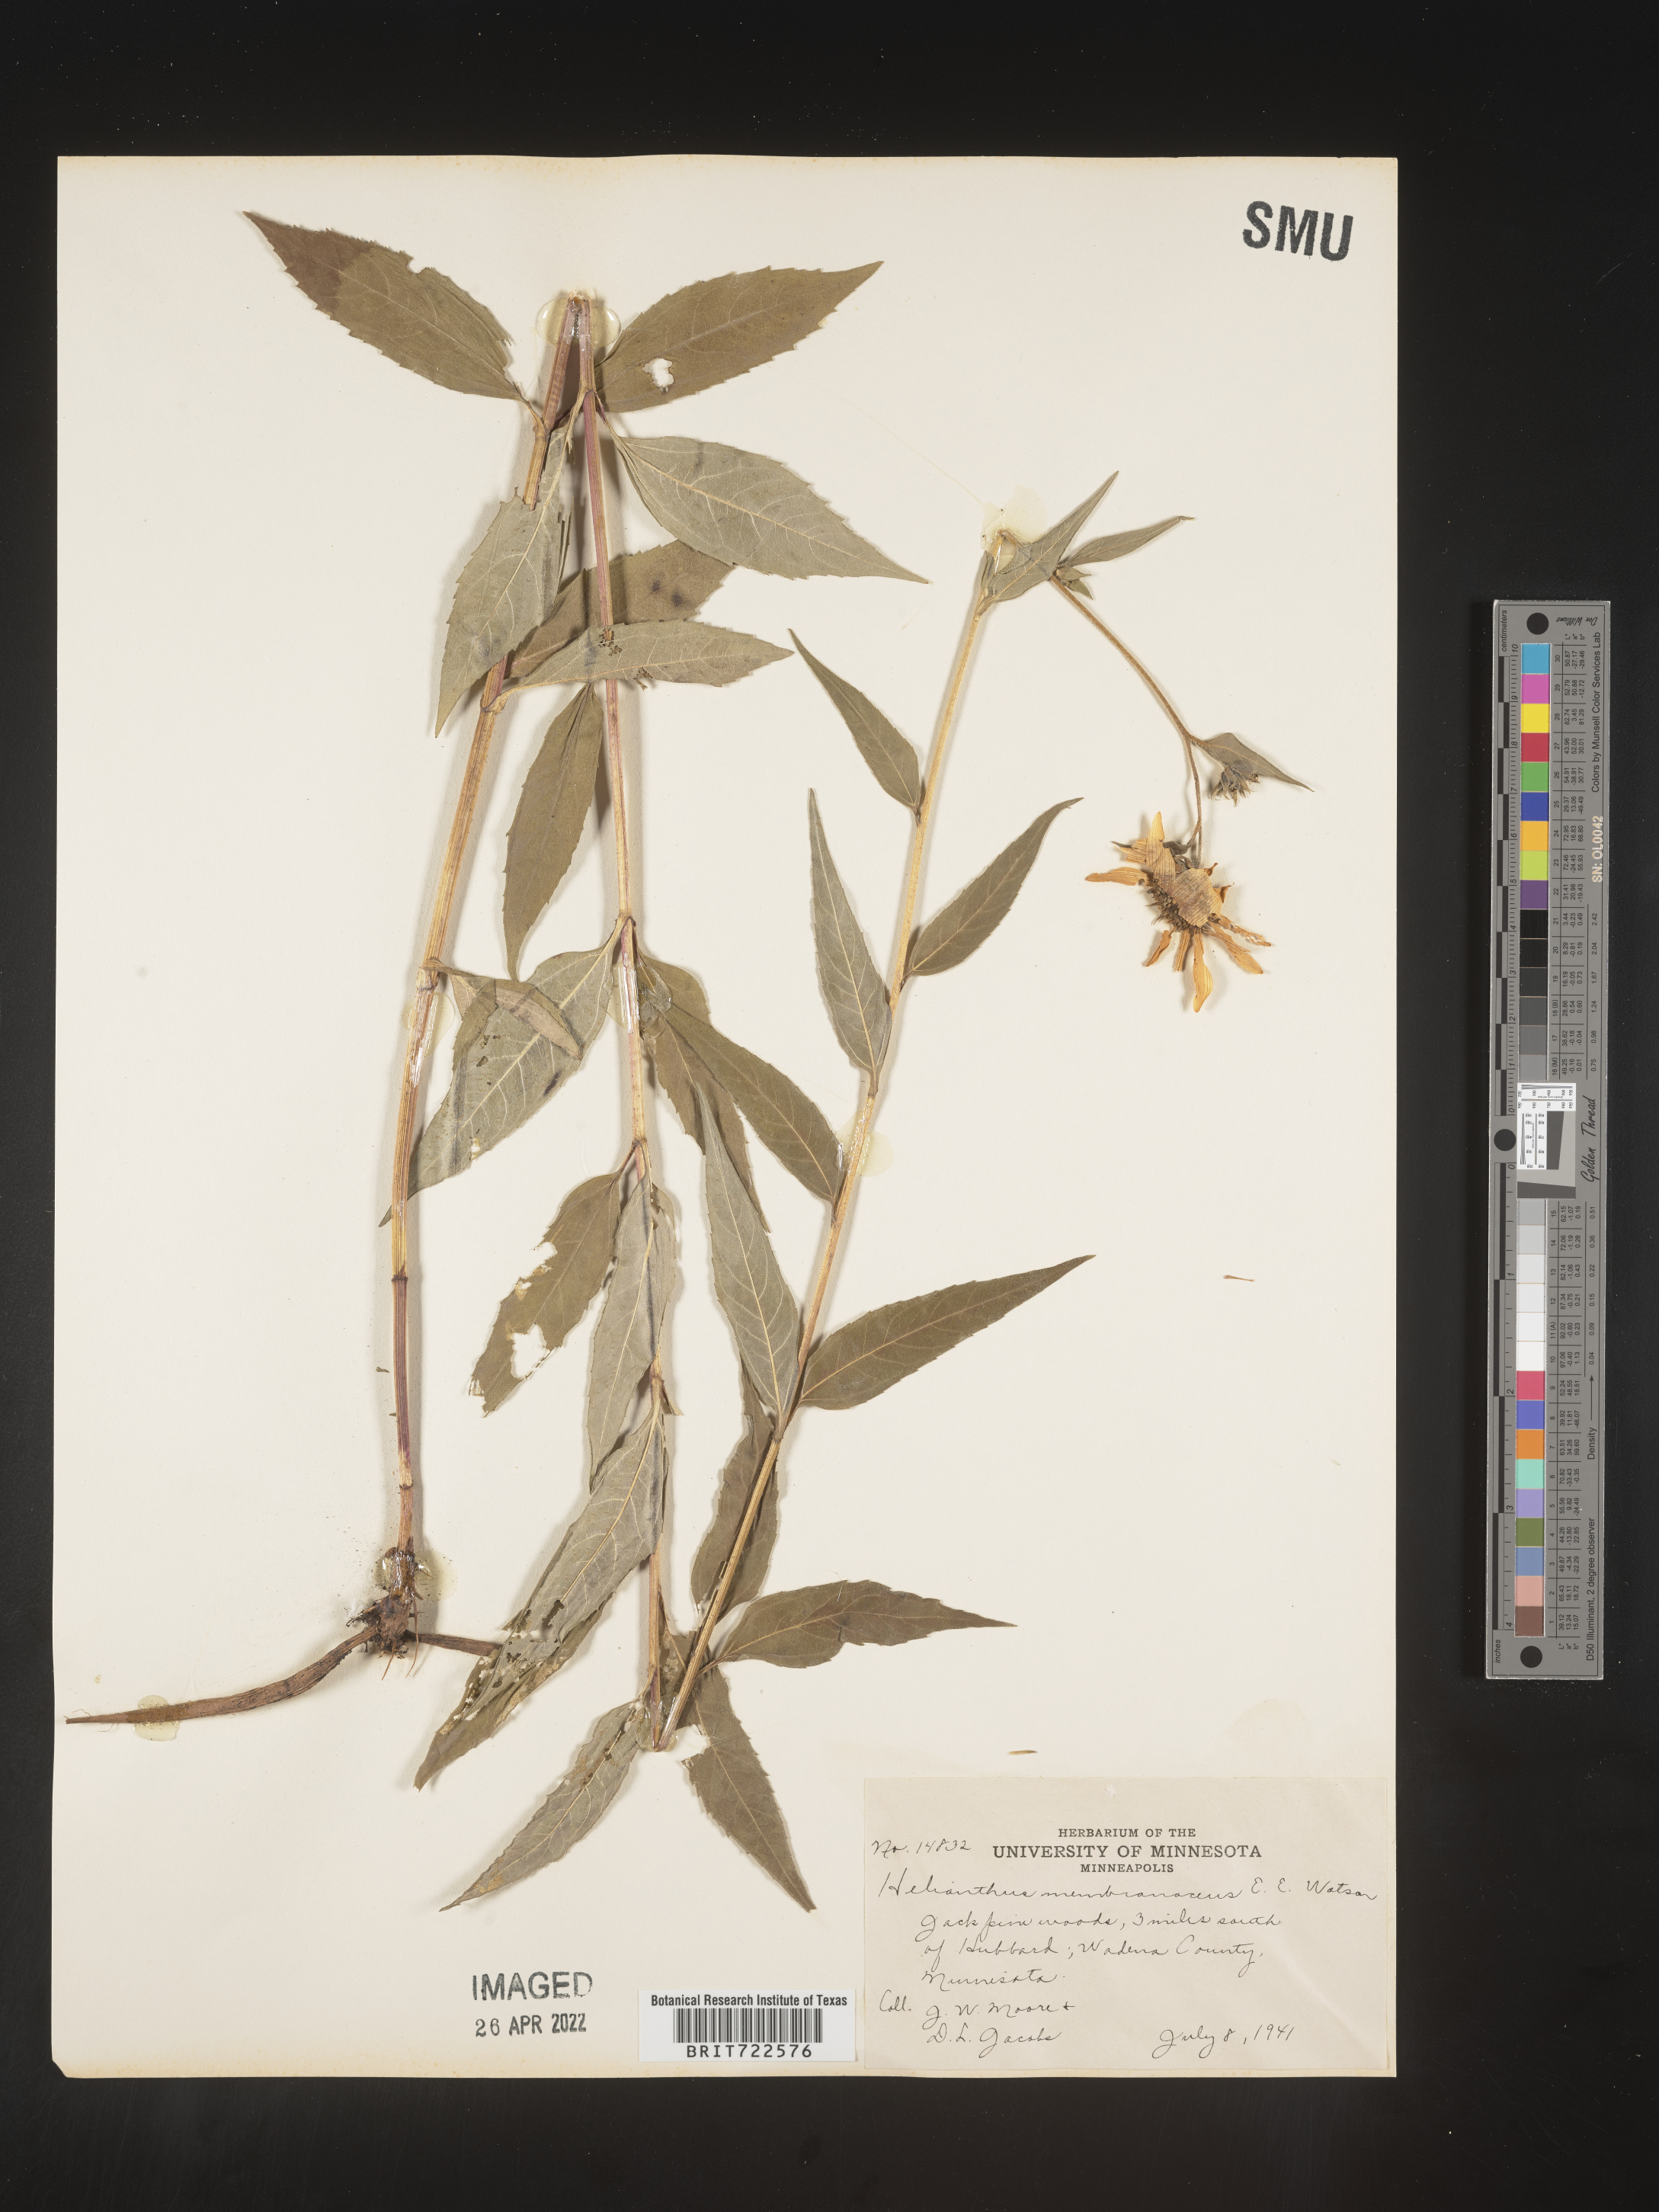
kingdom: Plantae
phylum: Tracheophyta
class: Magnoliopsida
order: Asterales
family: Asteraceae
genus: Helianthus
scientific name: Helianthus
